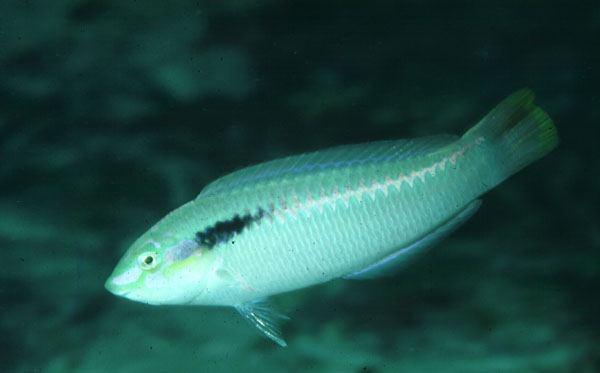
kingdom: Animalia
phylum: Chordata
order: Perciformes
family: Labridae
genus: Halichoeres
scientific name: Halichoeres scapularis
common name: Brownbanded wrasse
